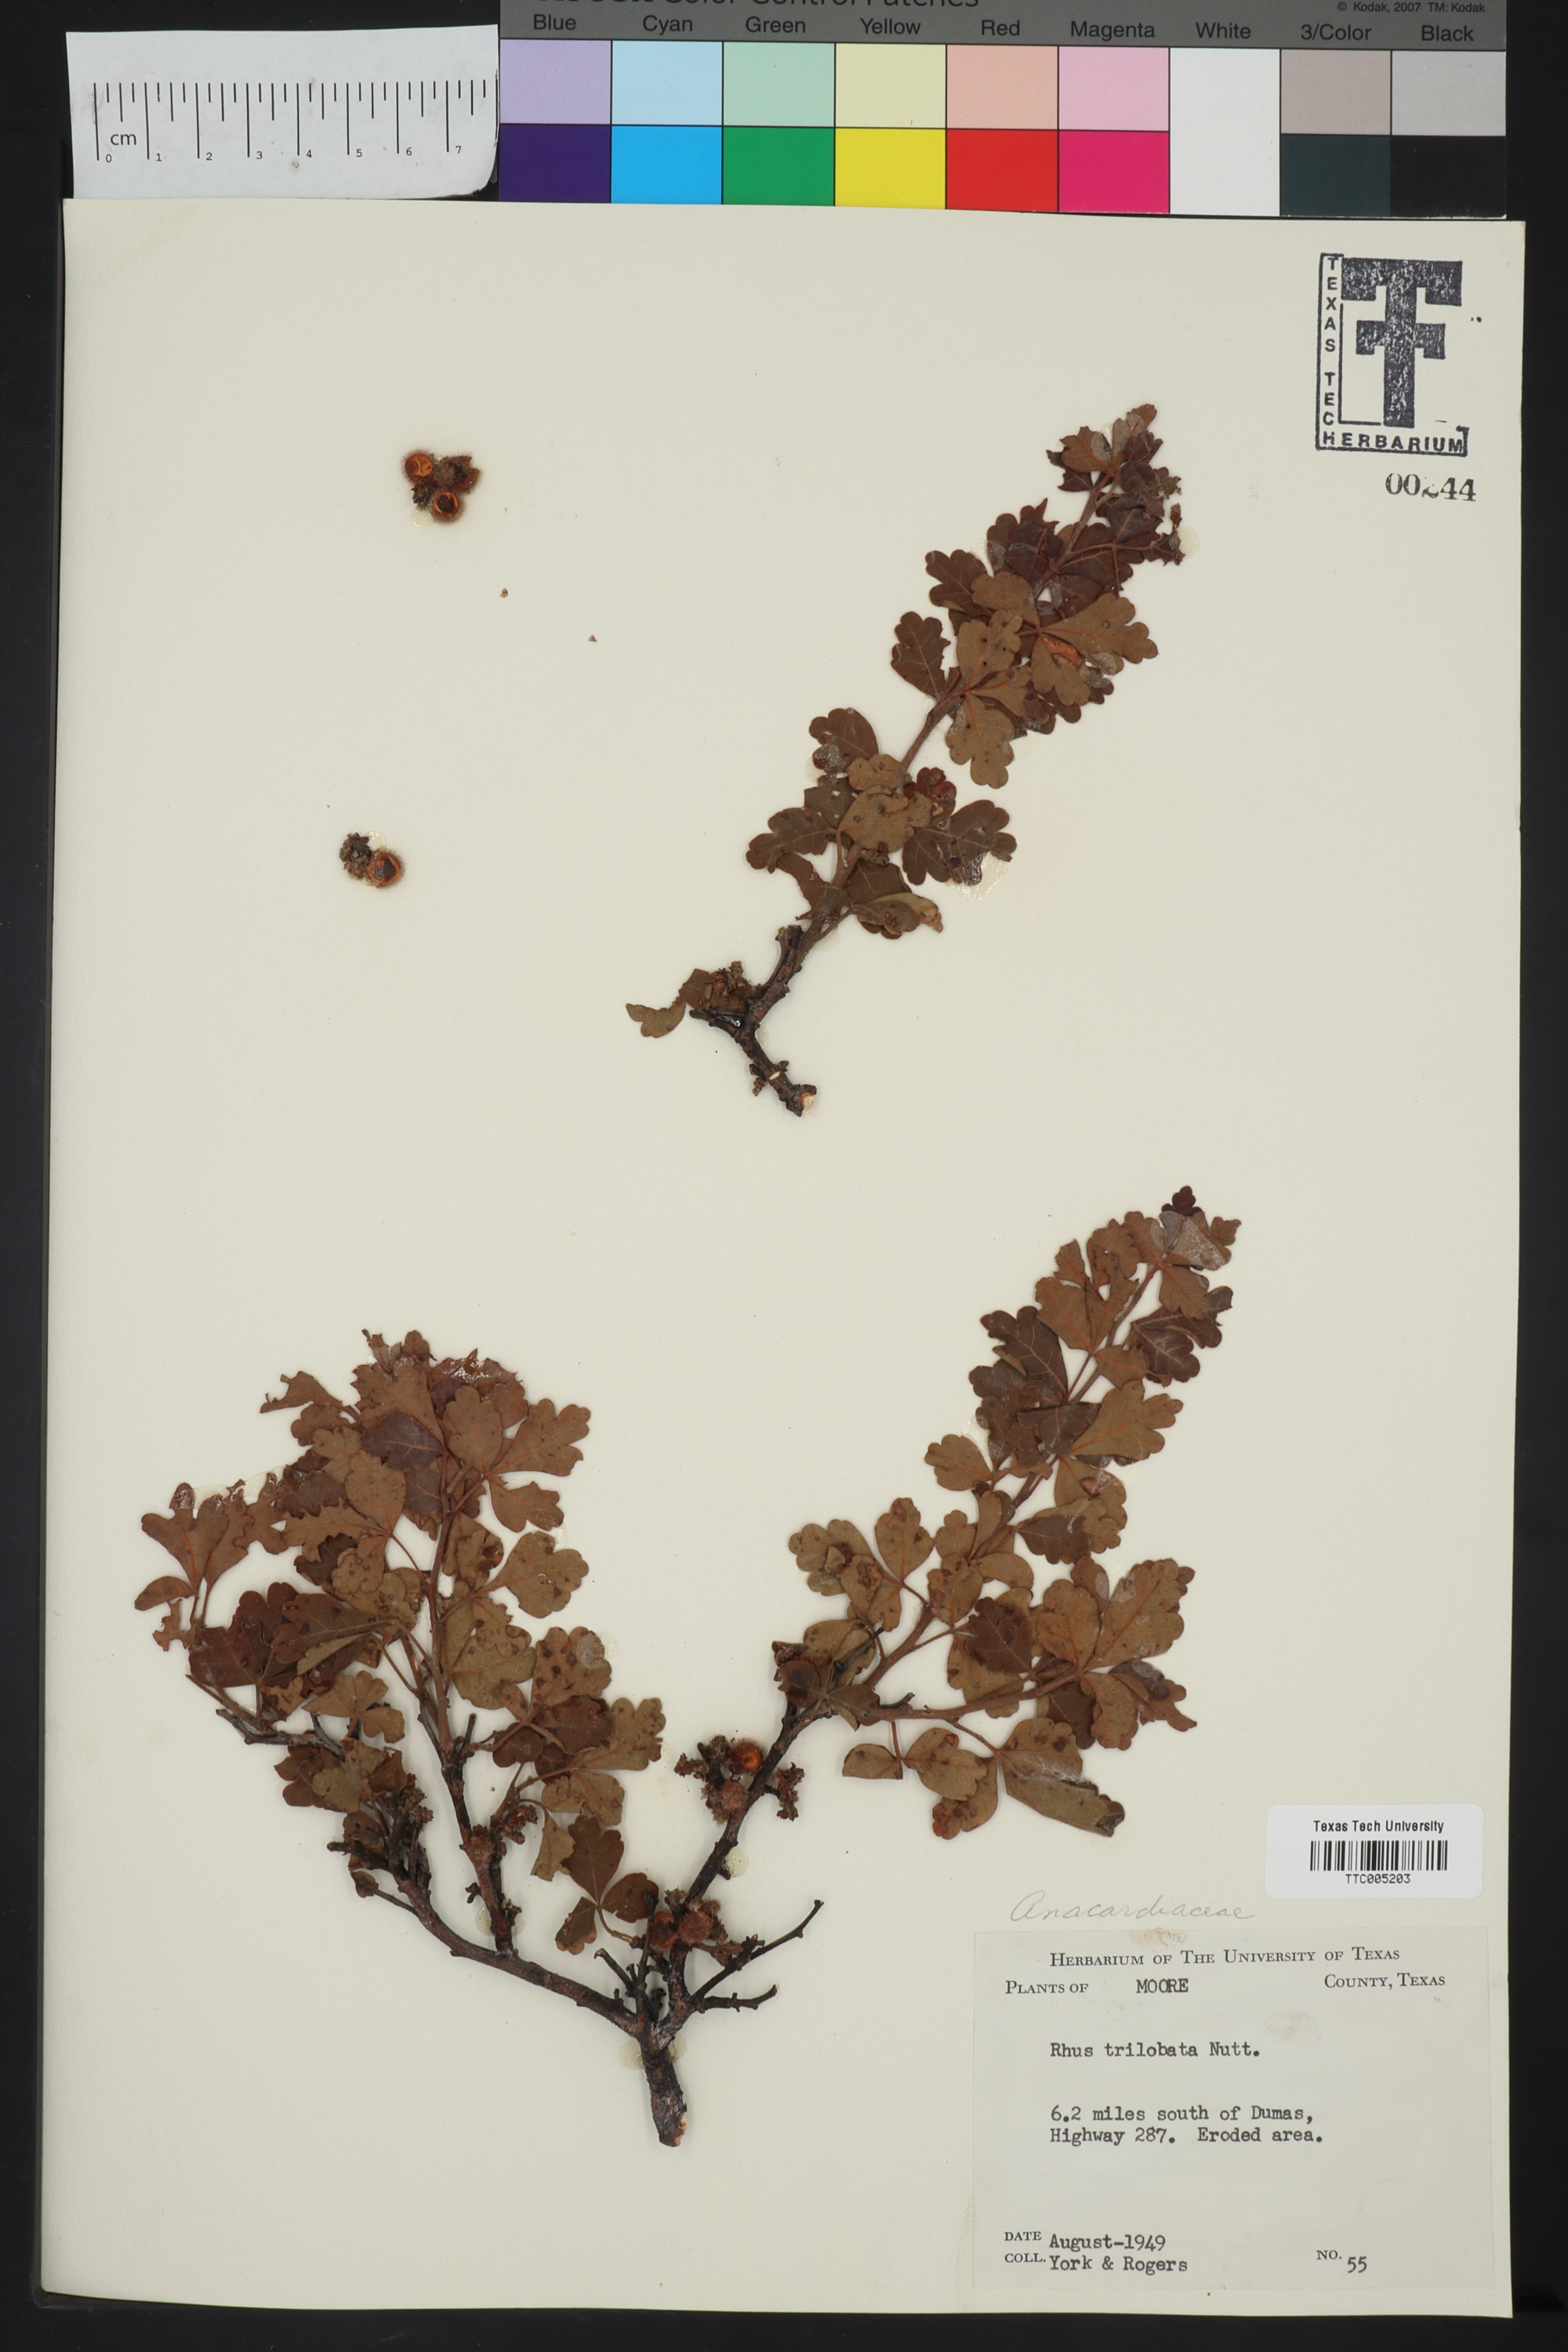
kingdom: Plantae
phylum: Tracheophyta
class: Magnoliopsida
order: Sapindales
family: Anacardiaceae
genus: Rhus
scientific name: Rhus trilobata
